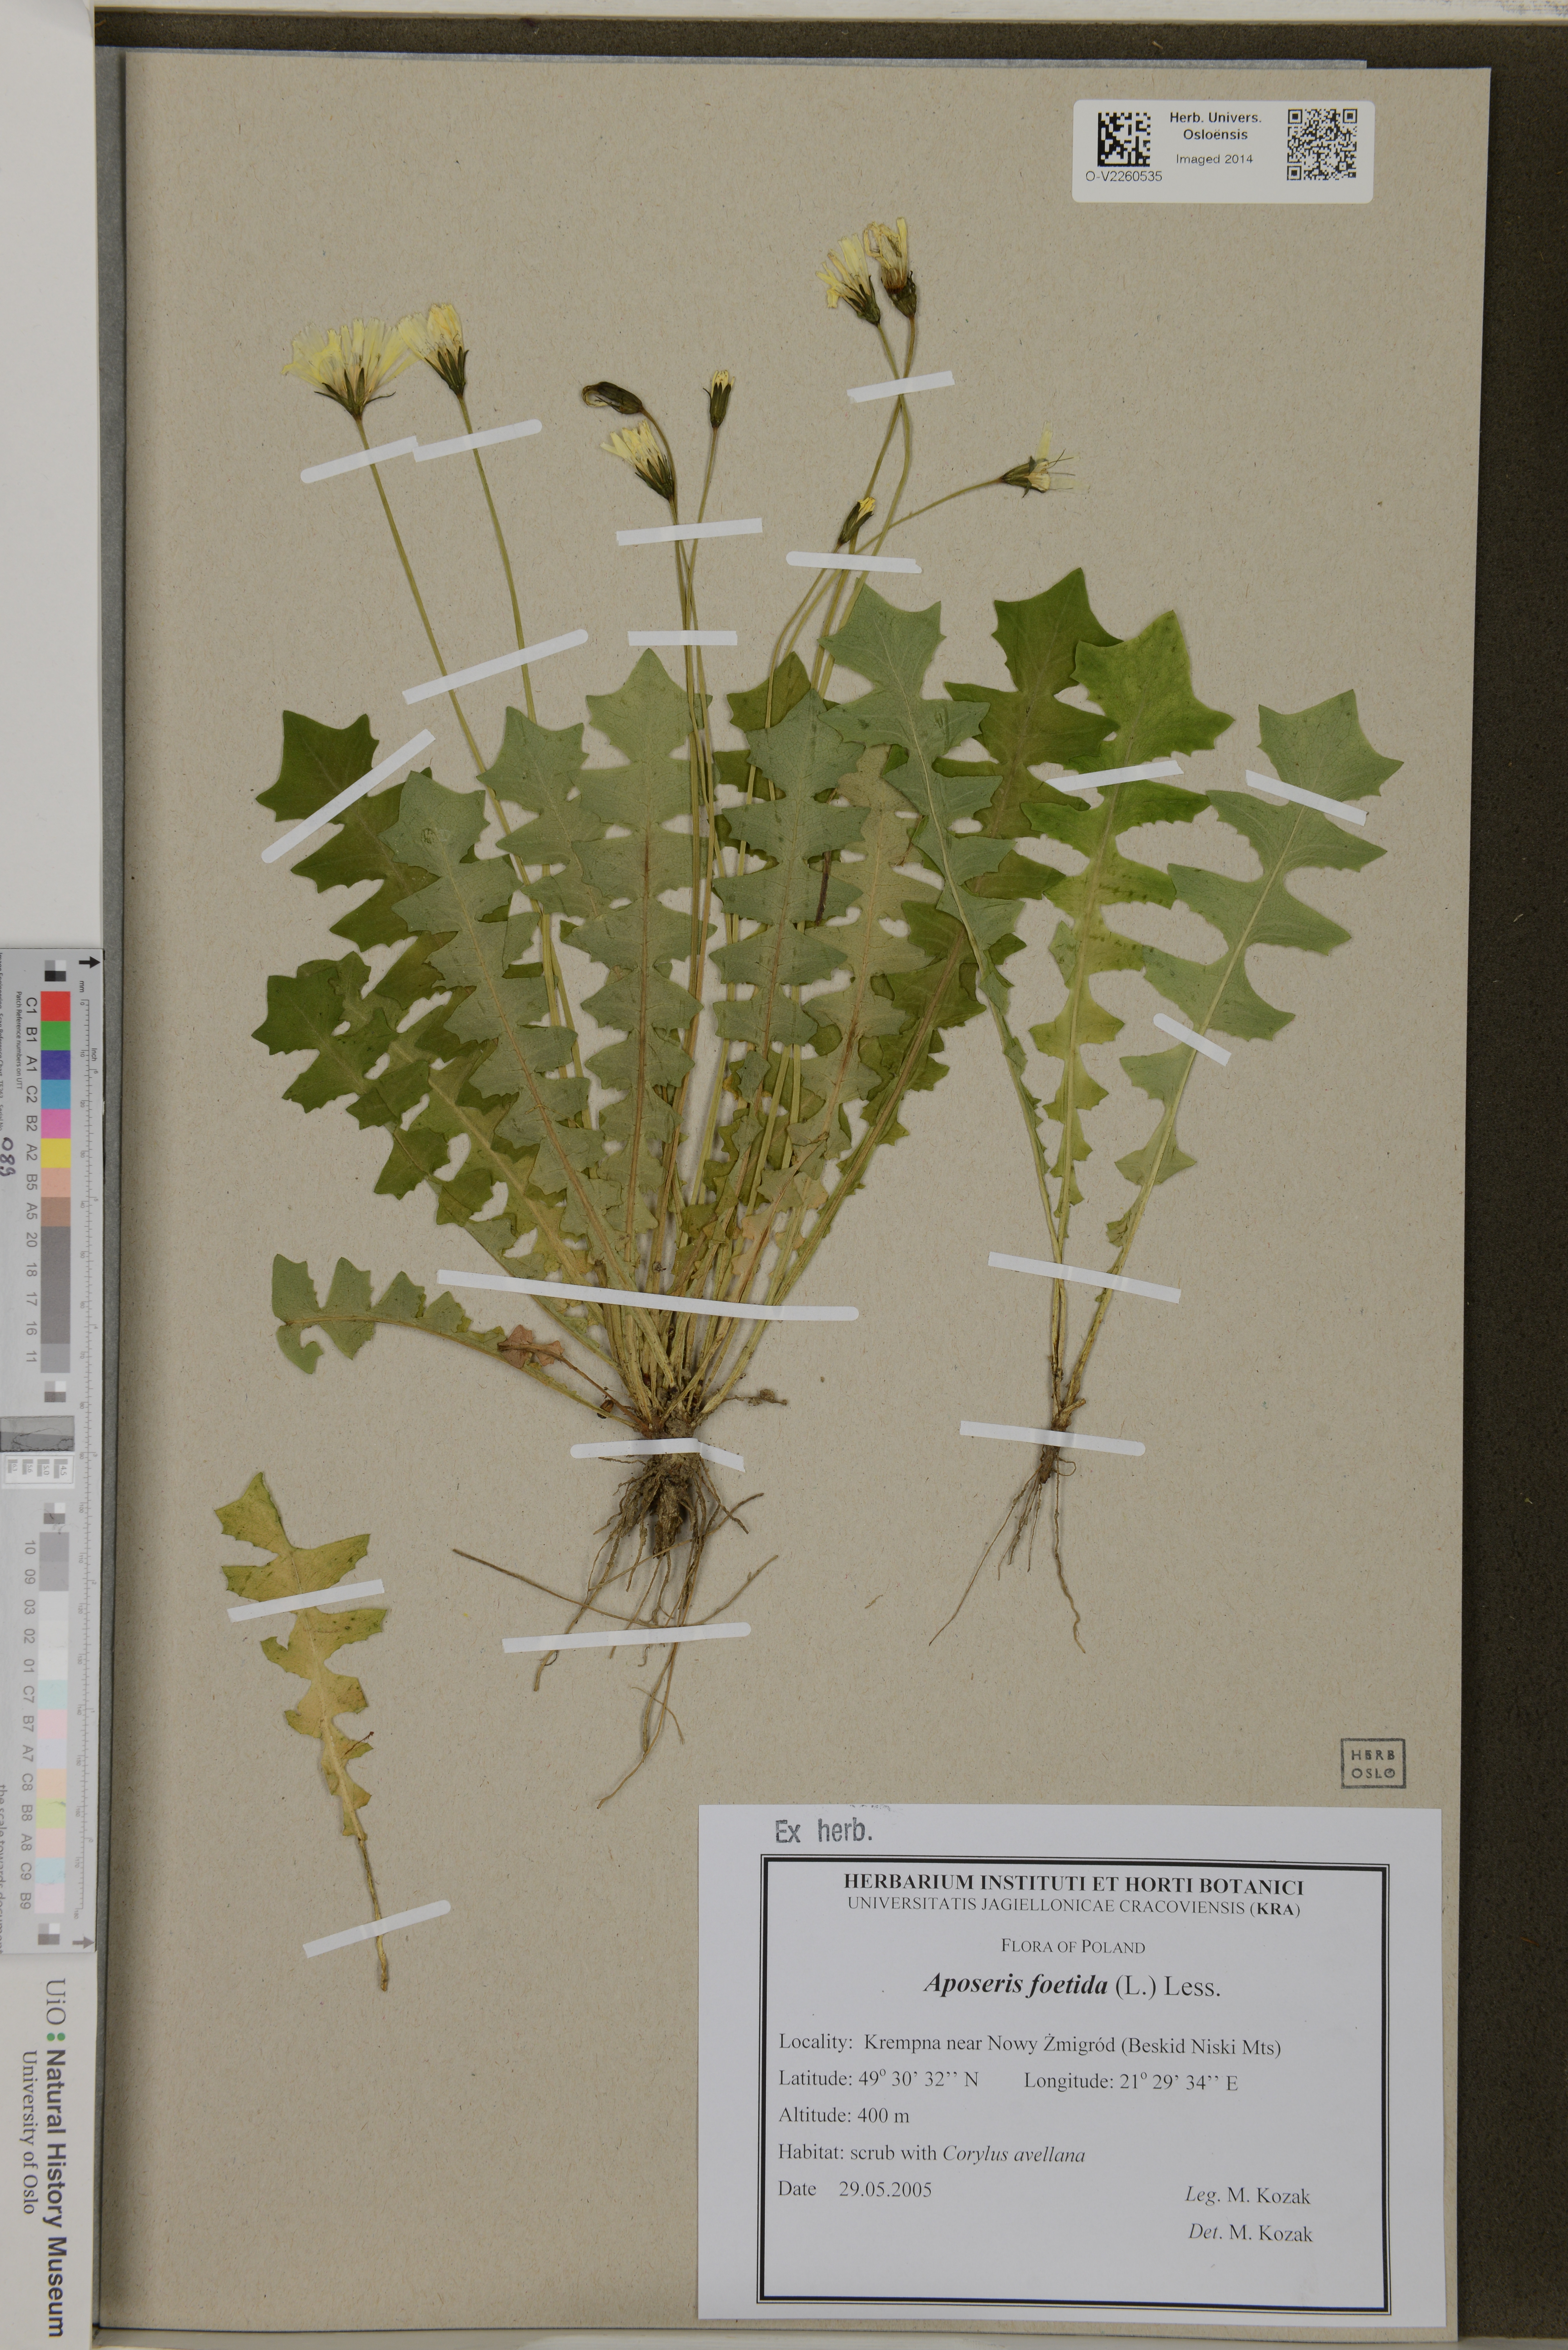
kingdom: Plantae
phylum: Tracheophyta
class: Magnoliopsida
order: Asterales
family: Asteraceae
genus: Aposeris
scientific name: Aposeris foetida
